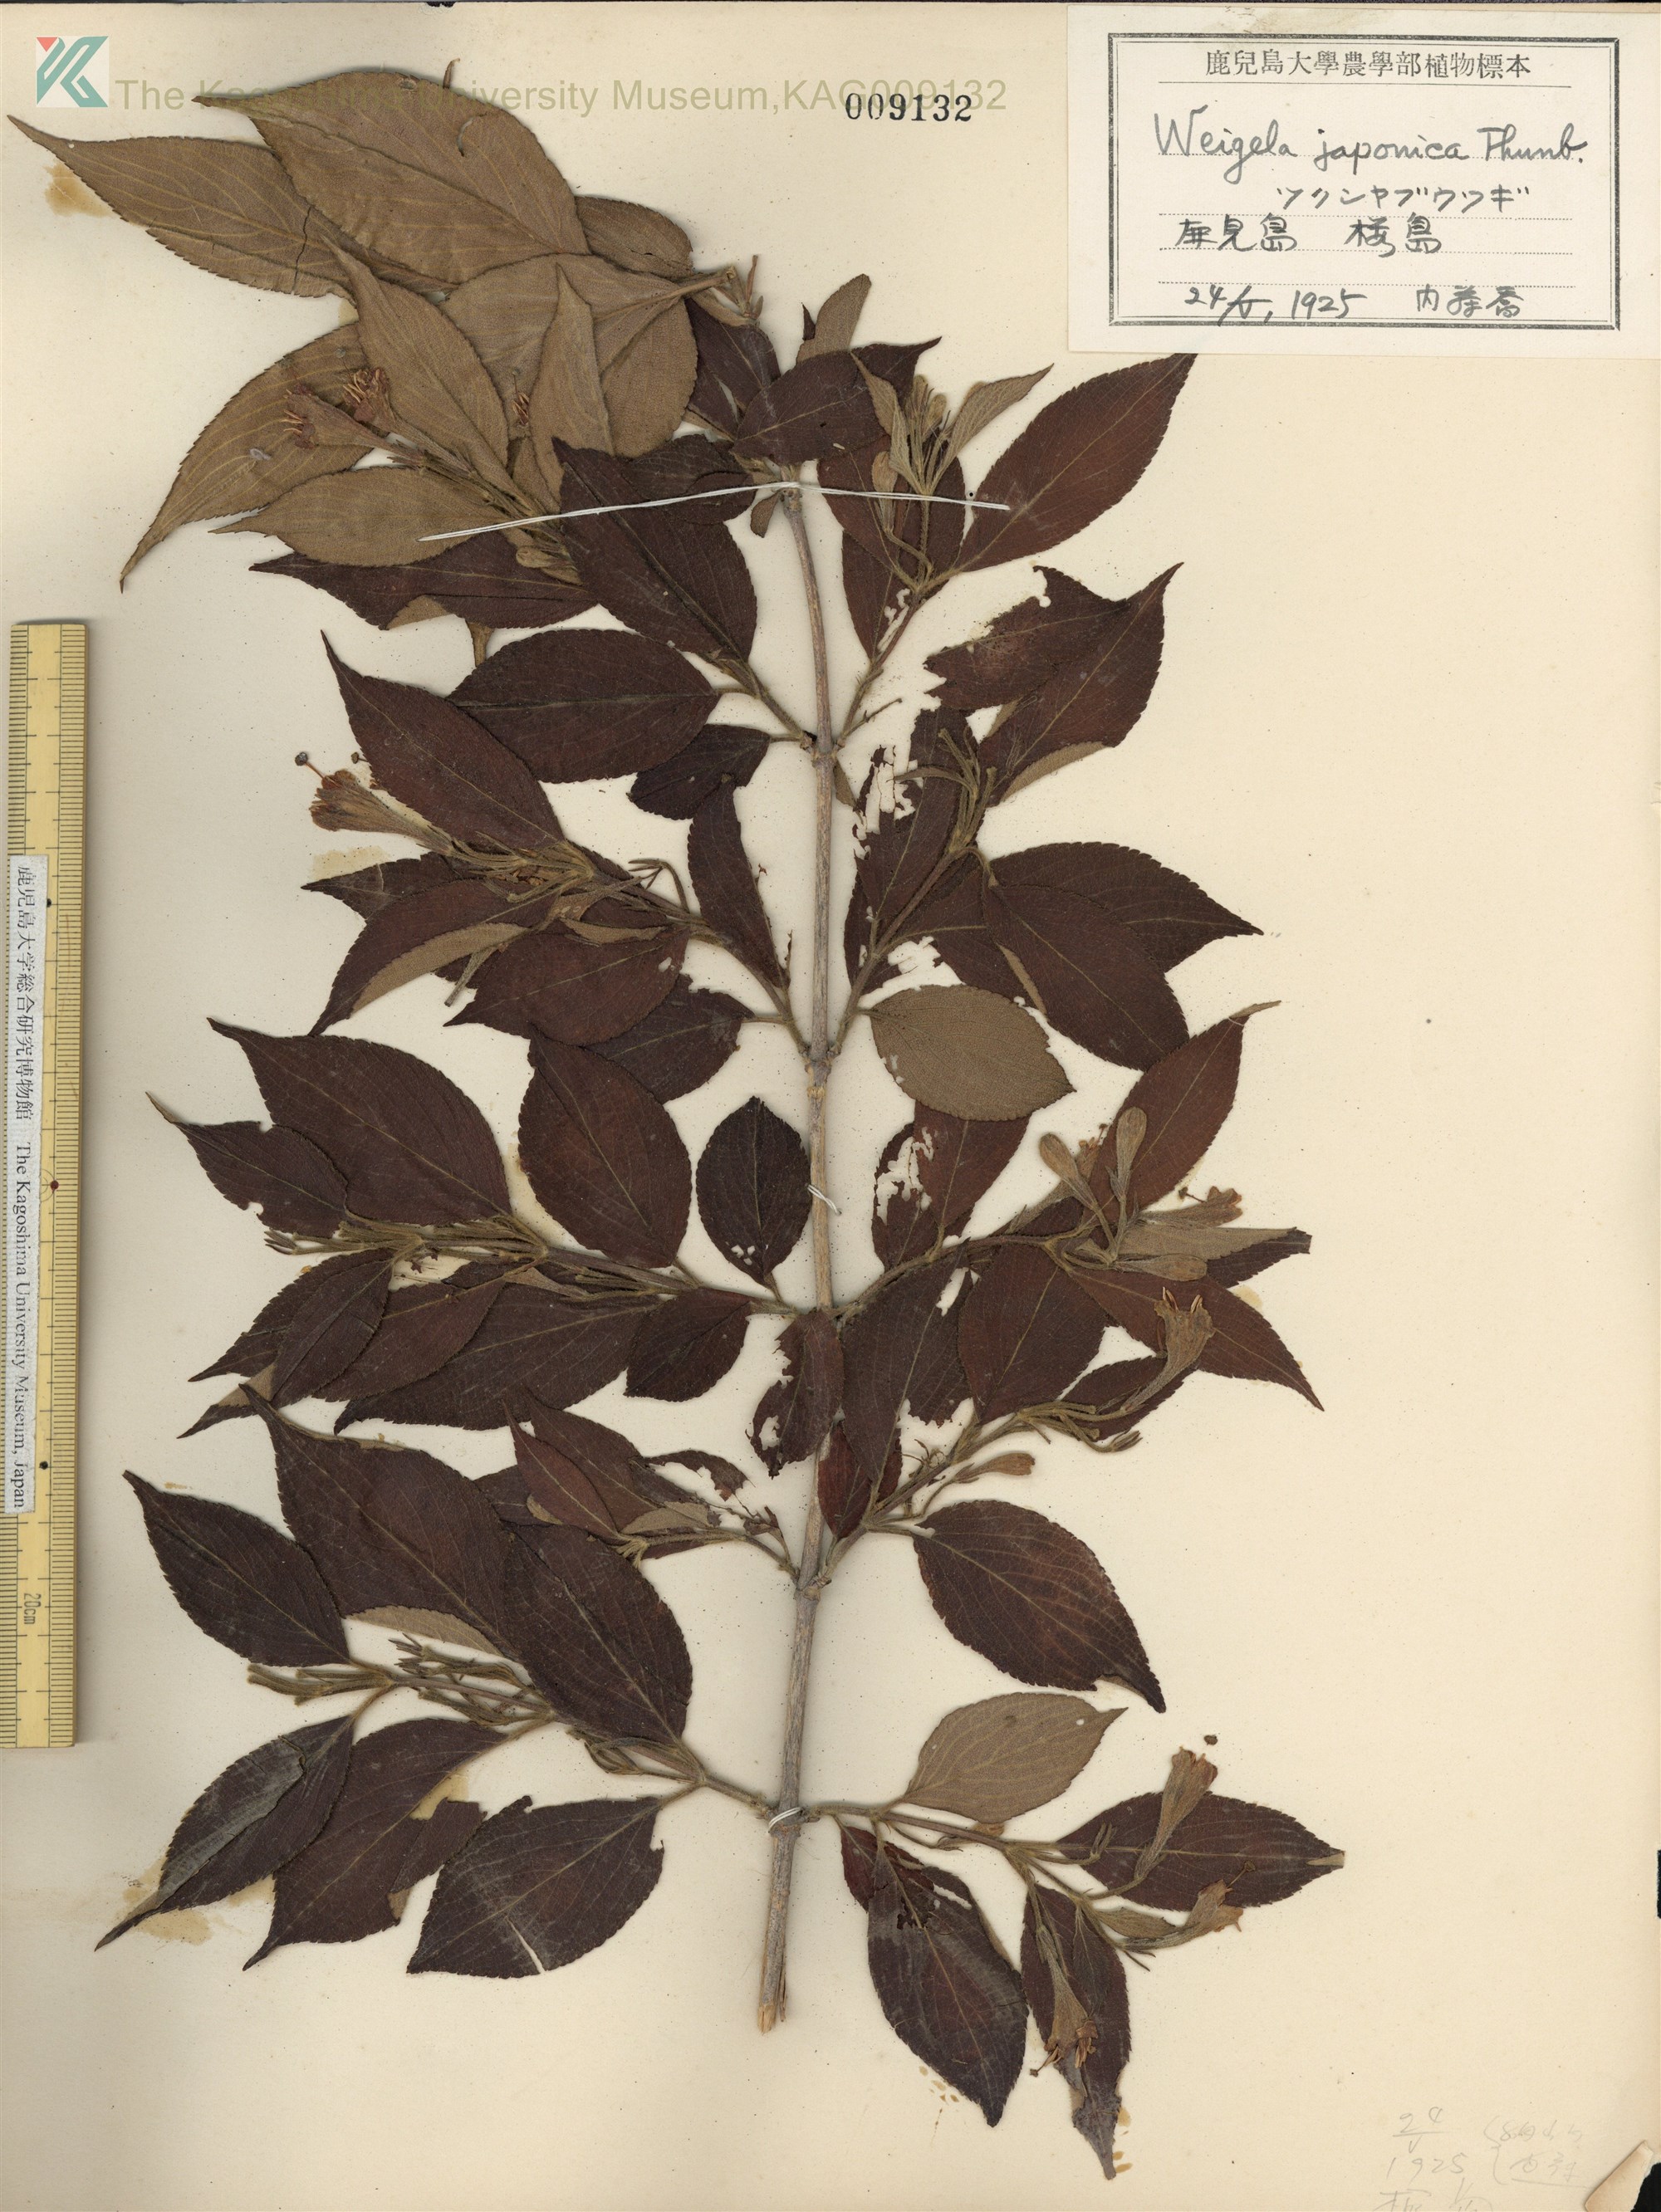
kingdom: Plantae
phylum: Tracheophyta
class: Magnoliopsida
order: Dipsacales
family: Caprifoliaceae
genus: Weigela
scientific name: Weigela japonica
